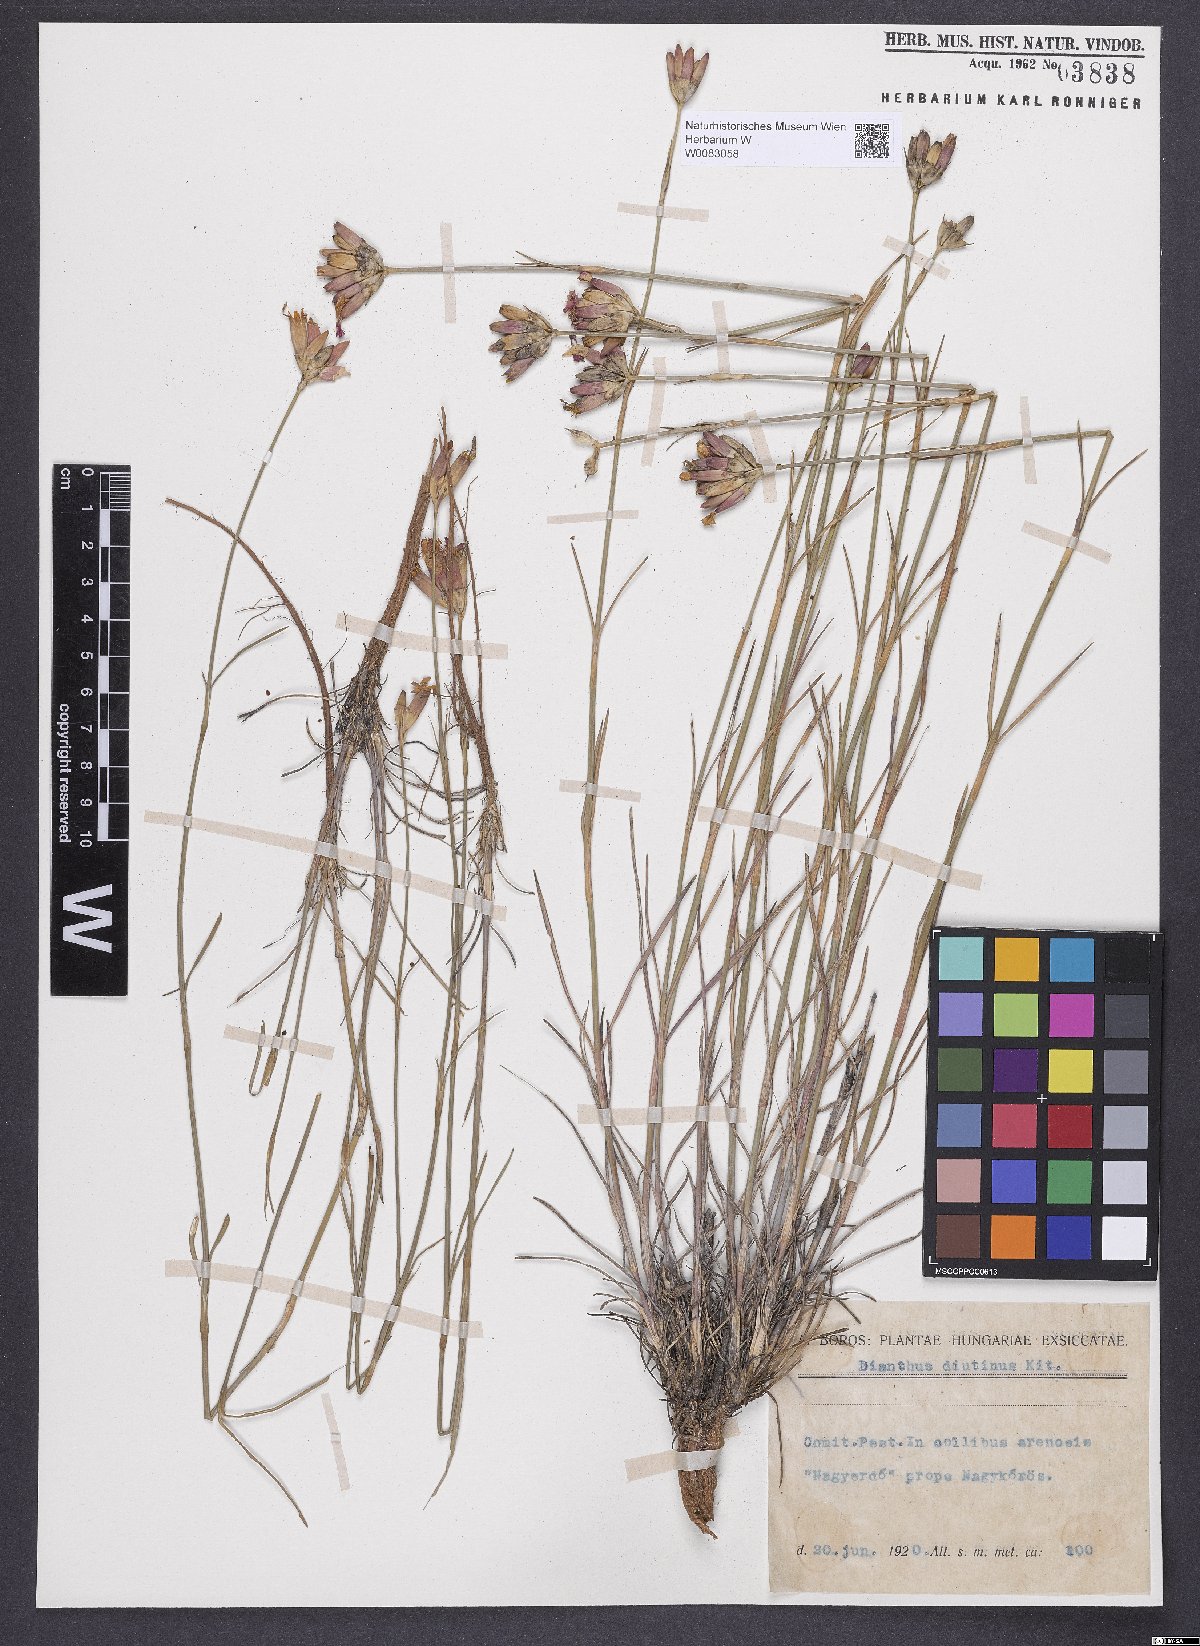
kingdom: Plantae
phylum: Tracheophyta
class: Magnoliopsida
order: Caryophyllales
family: Caryophyllaceae
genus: Dianthus
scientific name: Dianthus polymorphus
